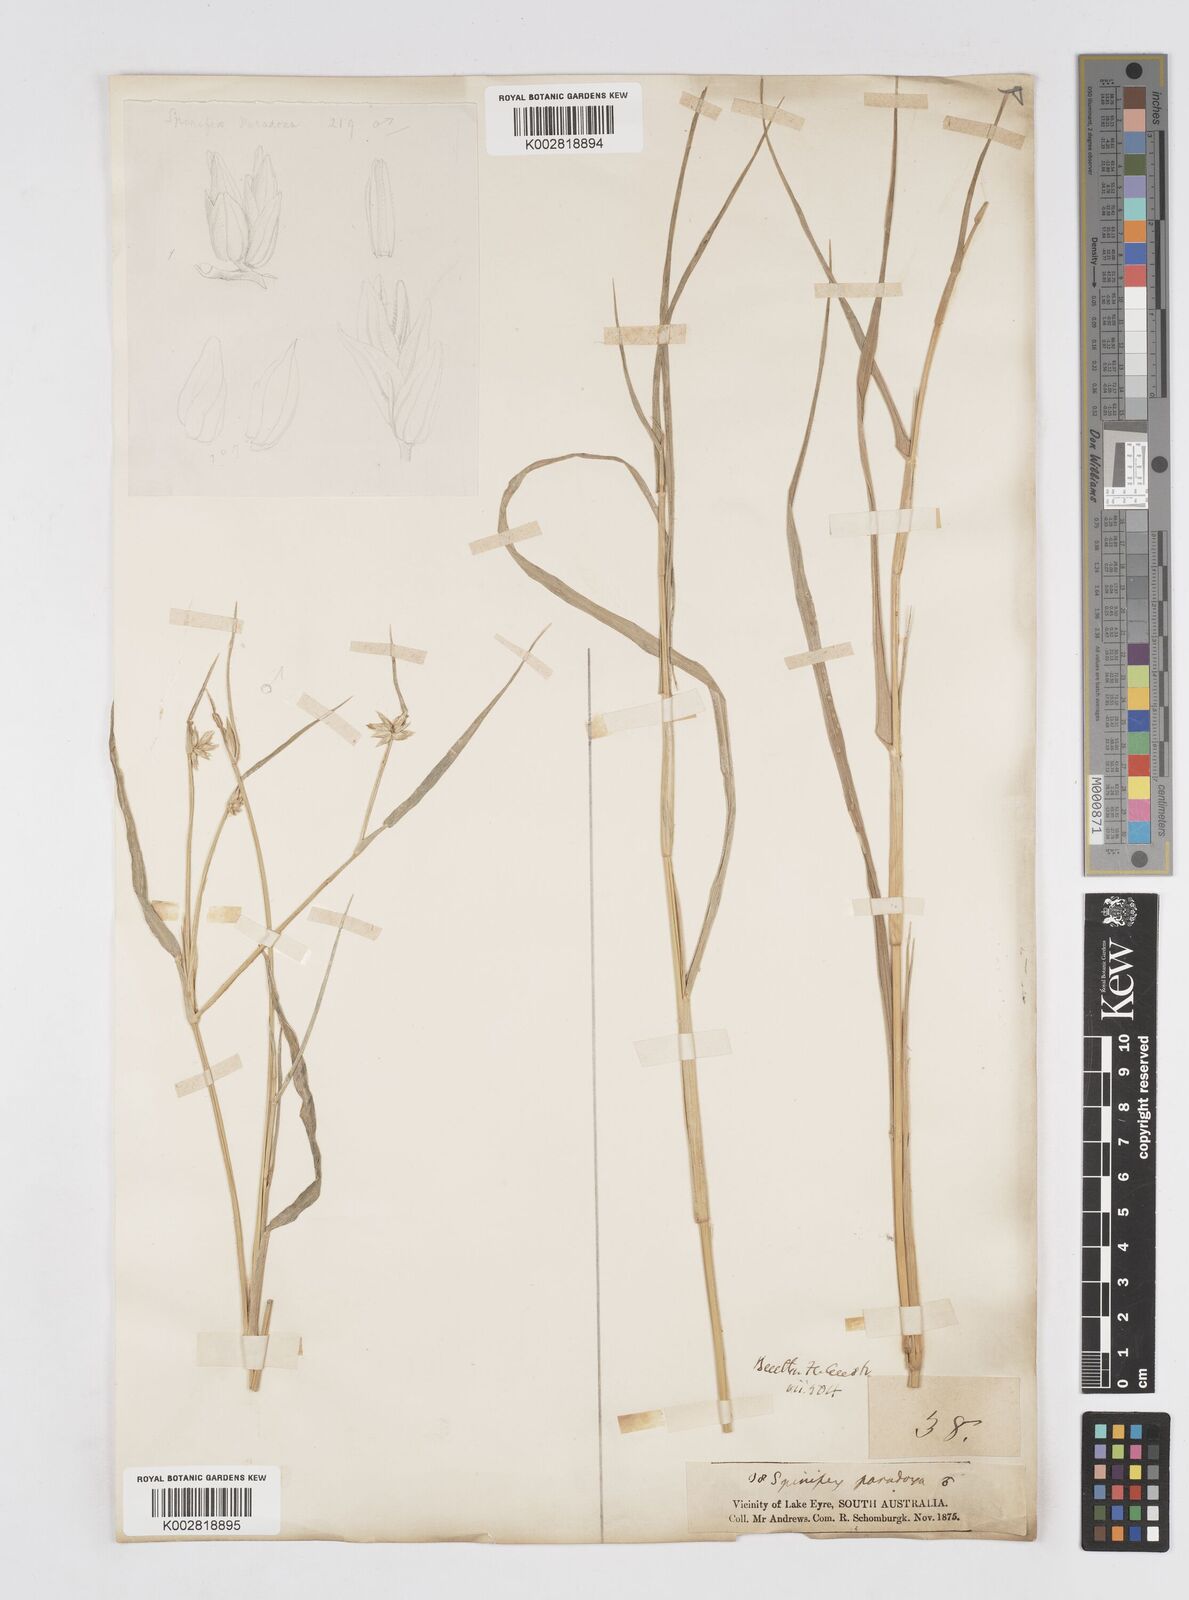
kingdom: Plantae
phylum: Tracheophyta
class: Liliopsida
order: Poales
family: Poaceae
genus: Zygochloa
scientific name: Zygochloa paradoxa
